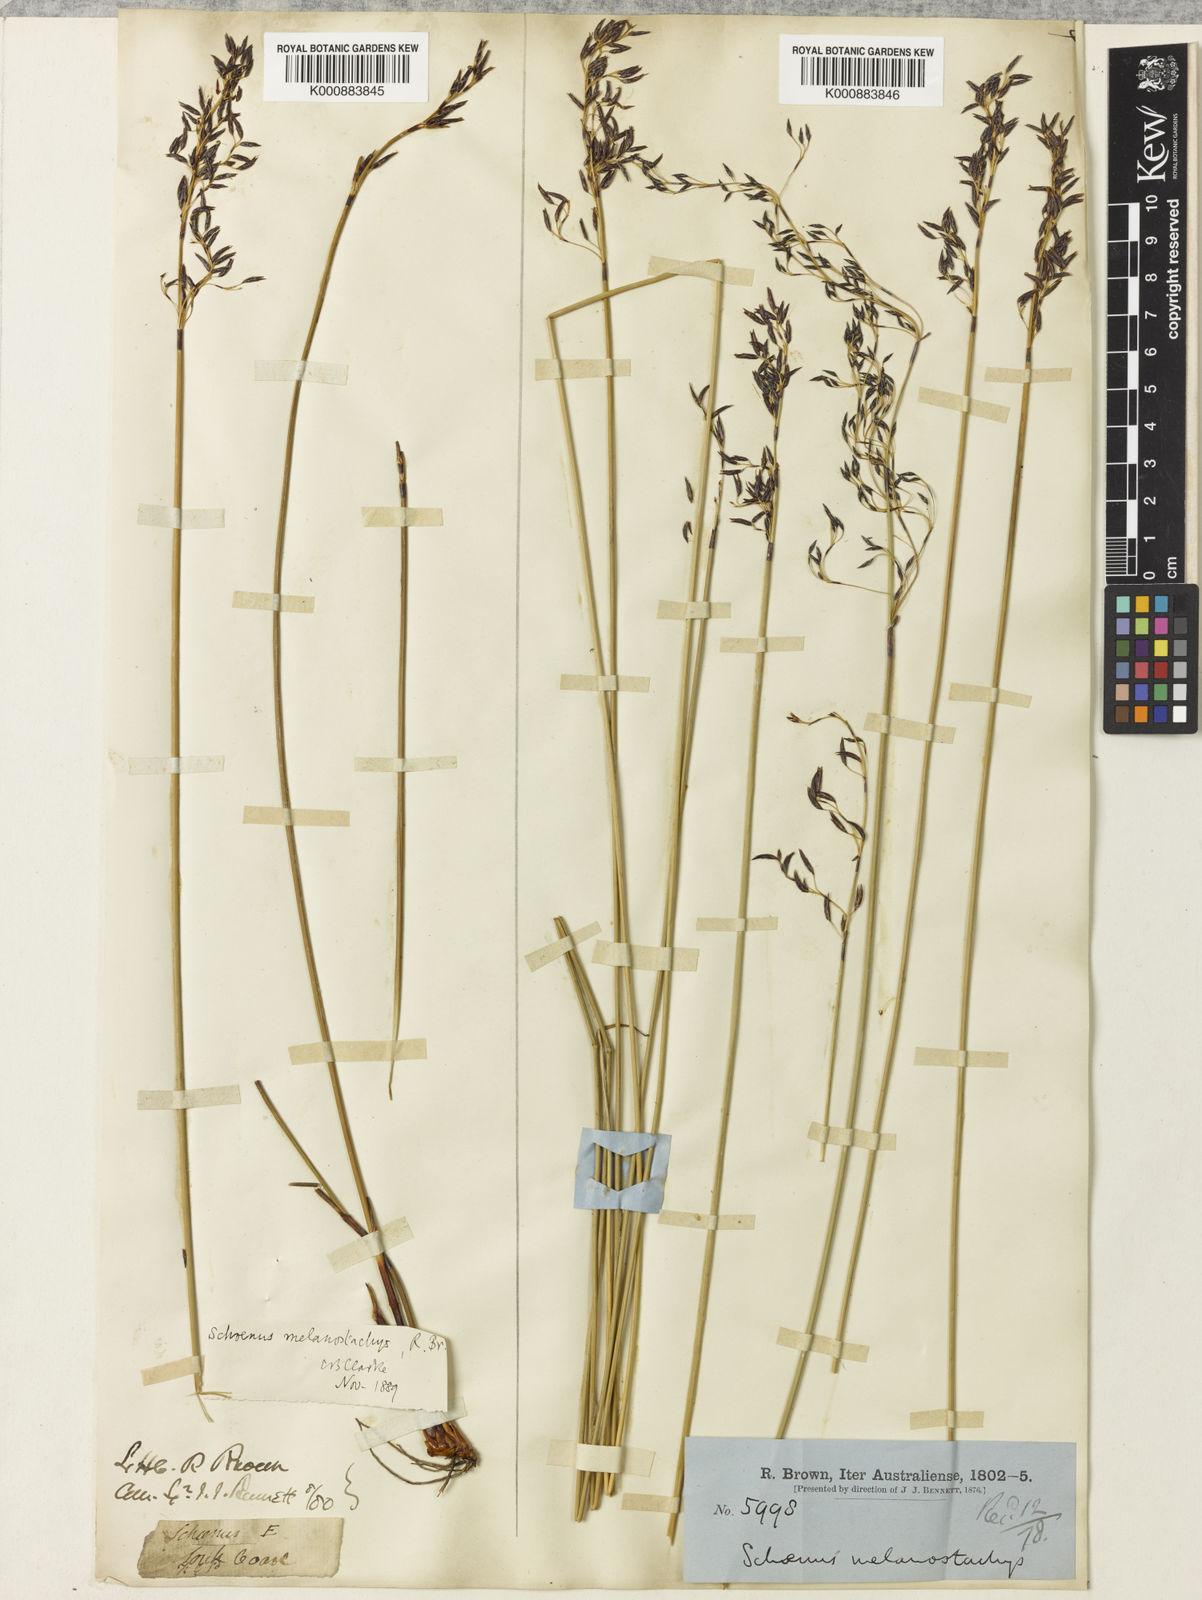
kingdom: Plantae
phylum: Tracheophyta
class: Liliopsida
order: Poales
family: Cyperaceae
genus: Schoenus
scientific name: Schoenus melanostachys
